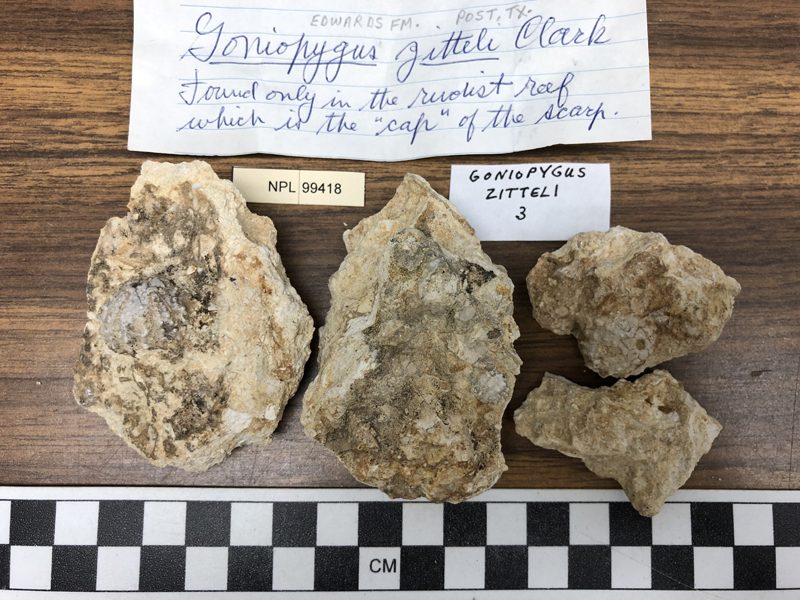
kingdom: Animalia
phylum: Echinodermata
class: Echinoidea
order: Arbacioida
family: Acropeltidae
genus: Goniopygus
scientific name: Goniopygus zitteli
